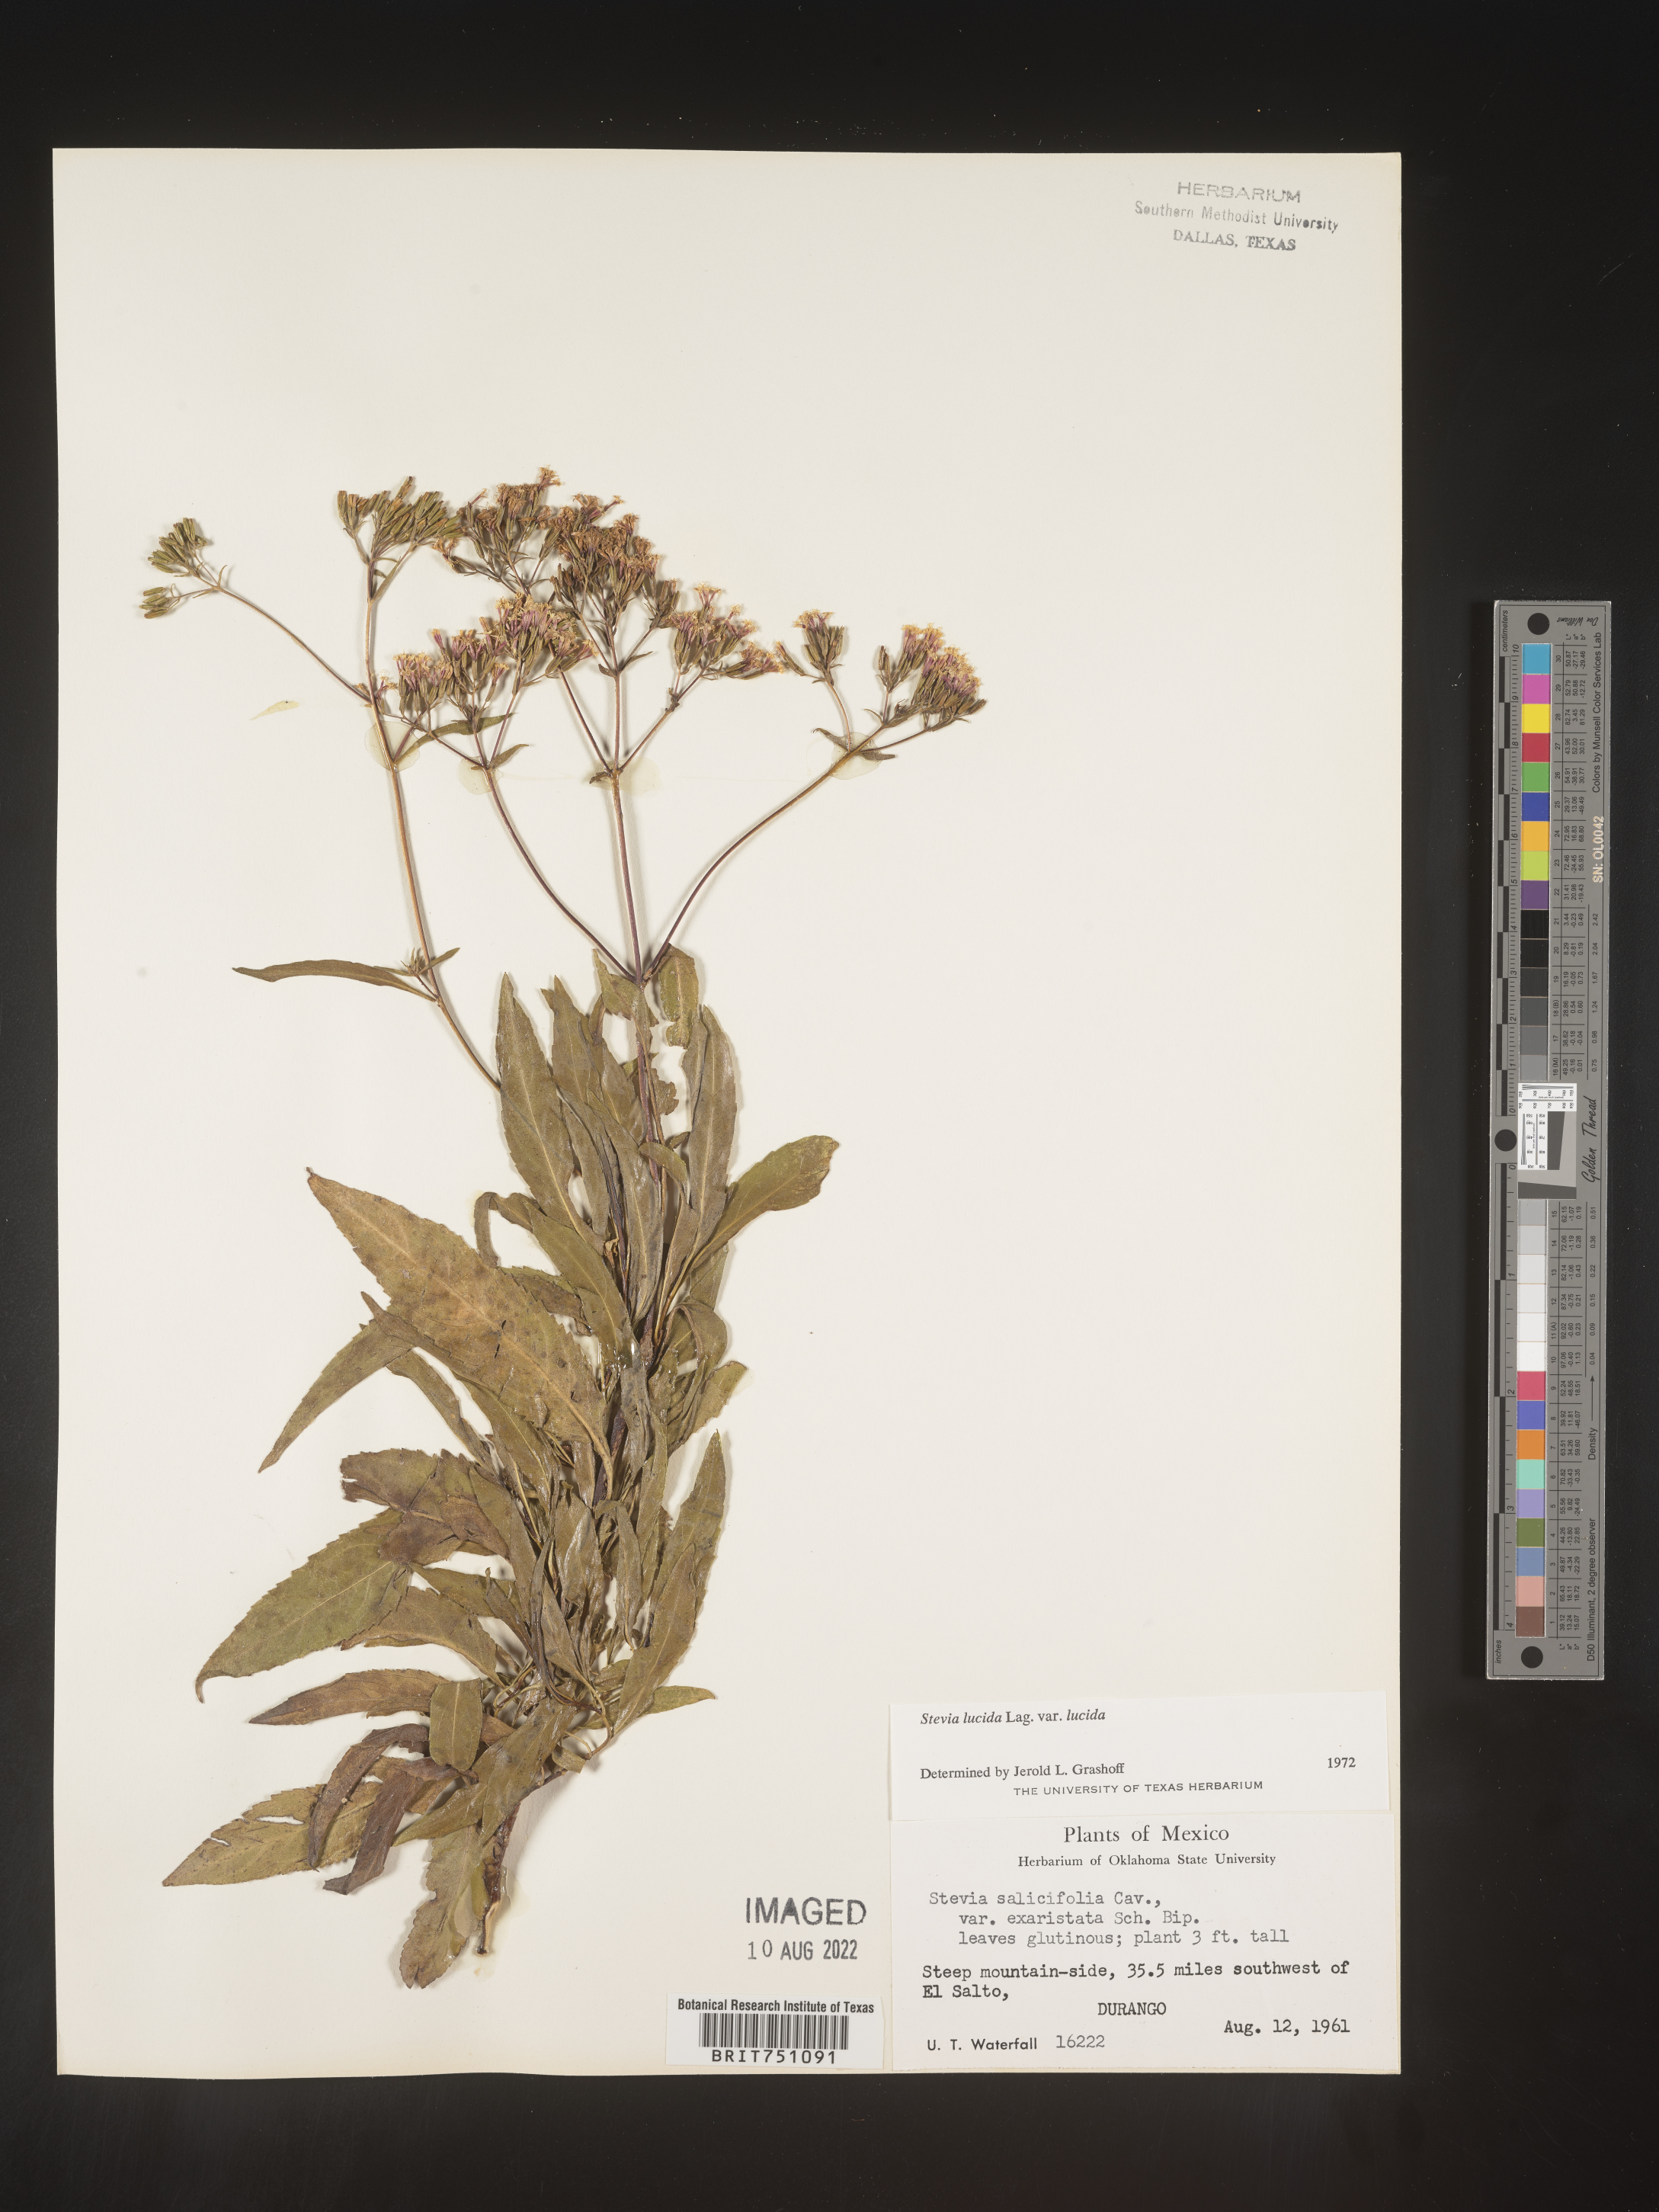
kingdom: Plantae
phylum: Tracheophyta
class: Magnoliopsida
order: Asterales
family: Asteraceae
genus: Stevia
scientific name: Stevia
